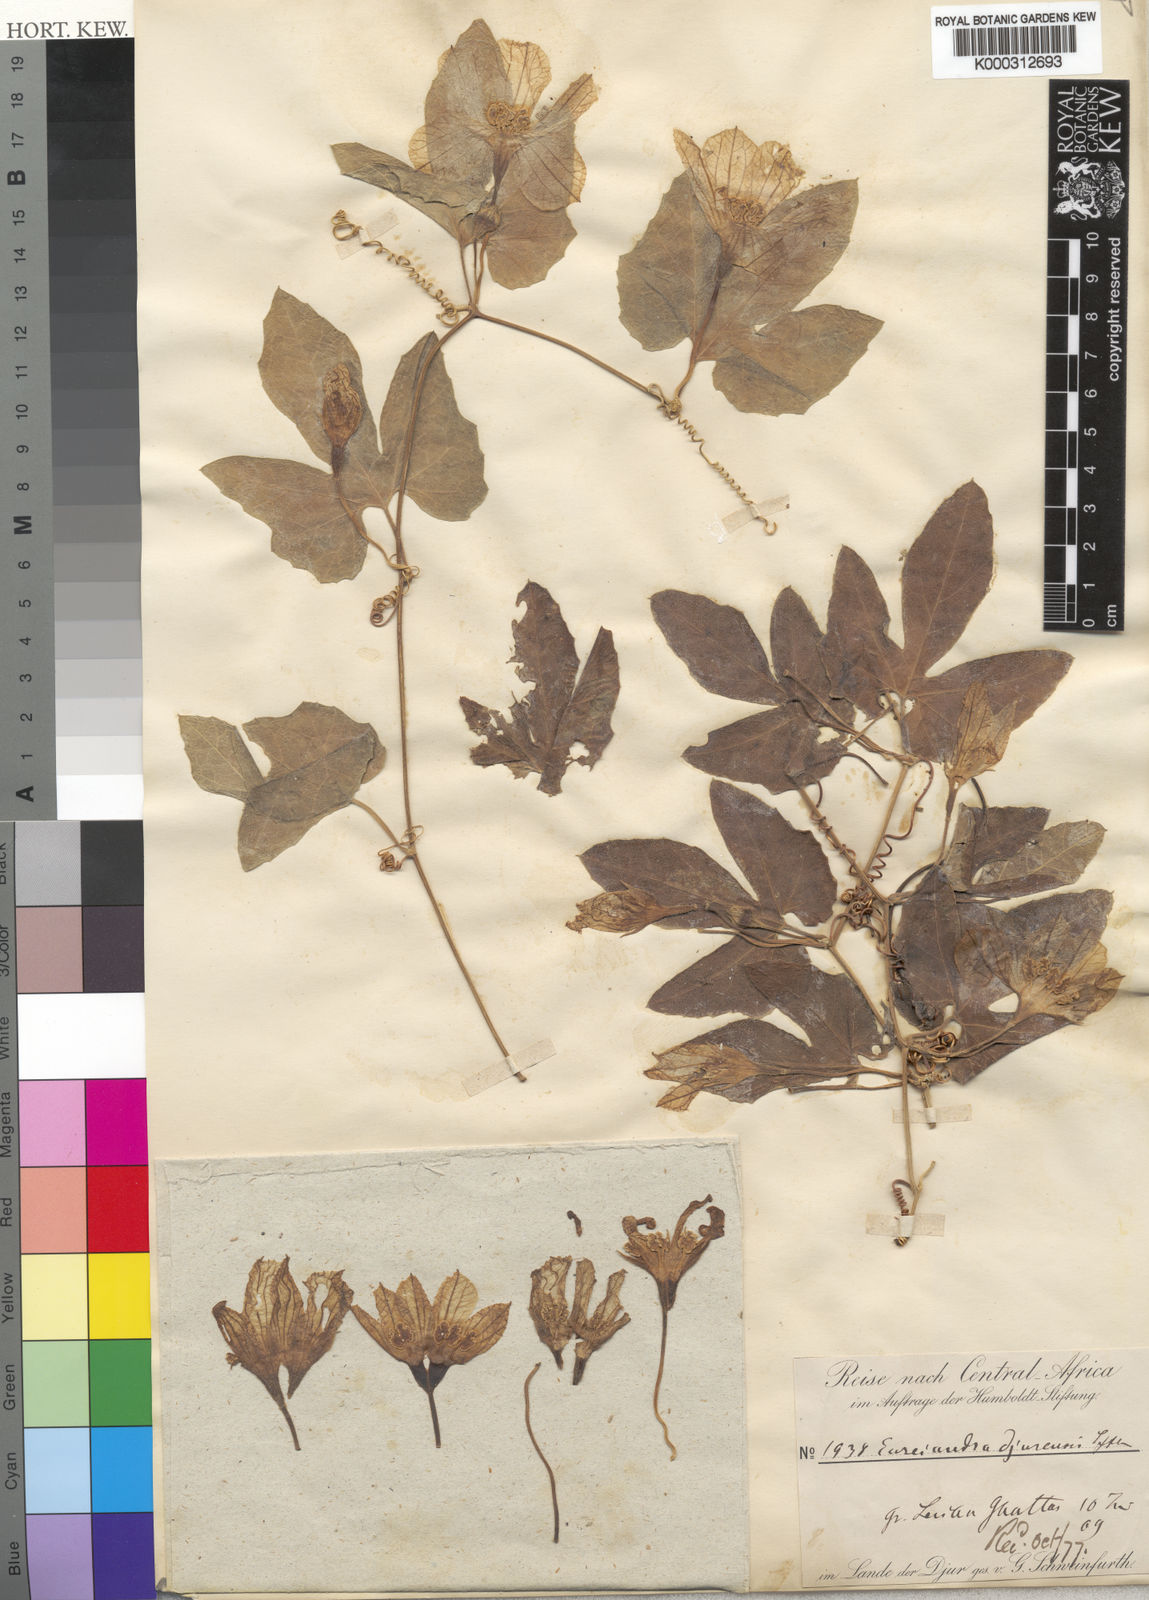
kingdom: Plantae
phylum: Tracheophyta
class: Magnoliopsida
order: Cucurbitales
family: Cucurbitaceae
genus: Eureiandra
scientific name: Eureiandra formosa
